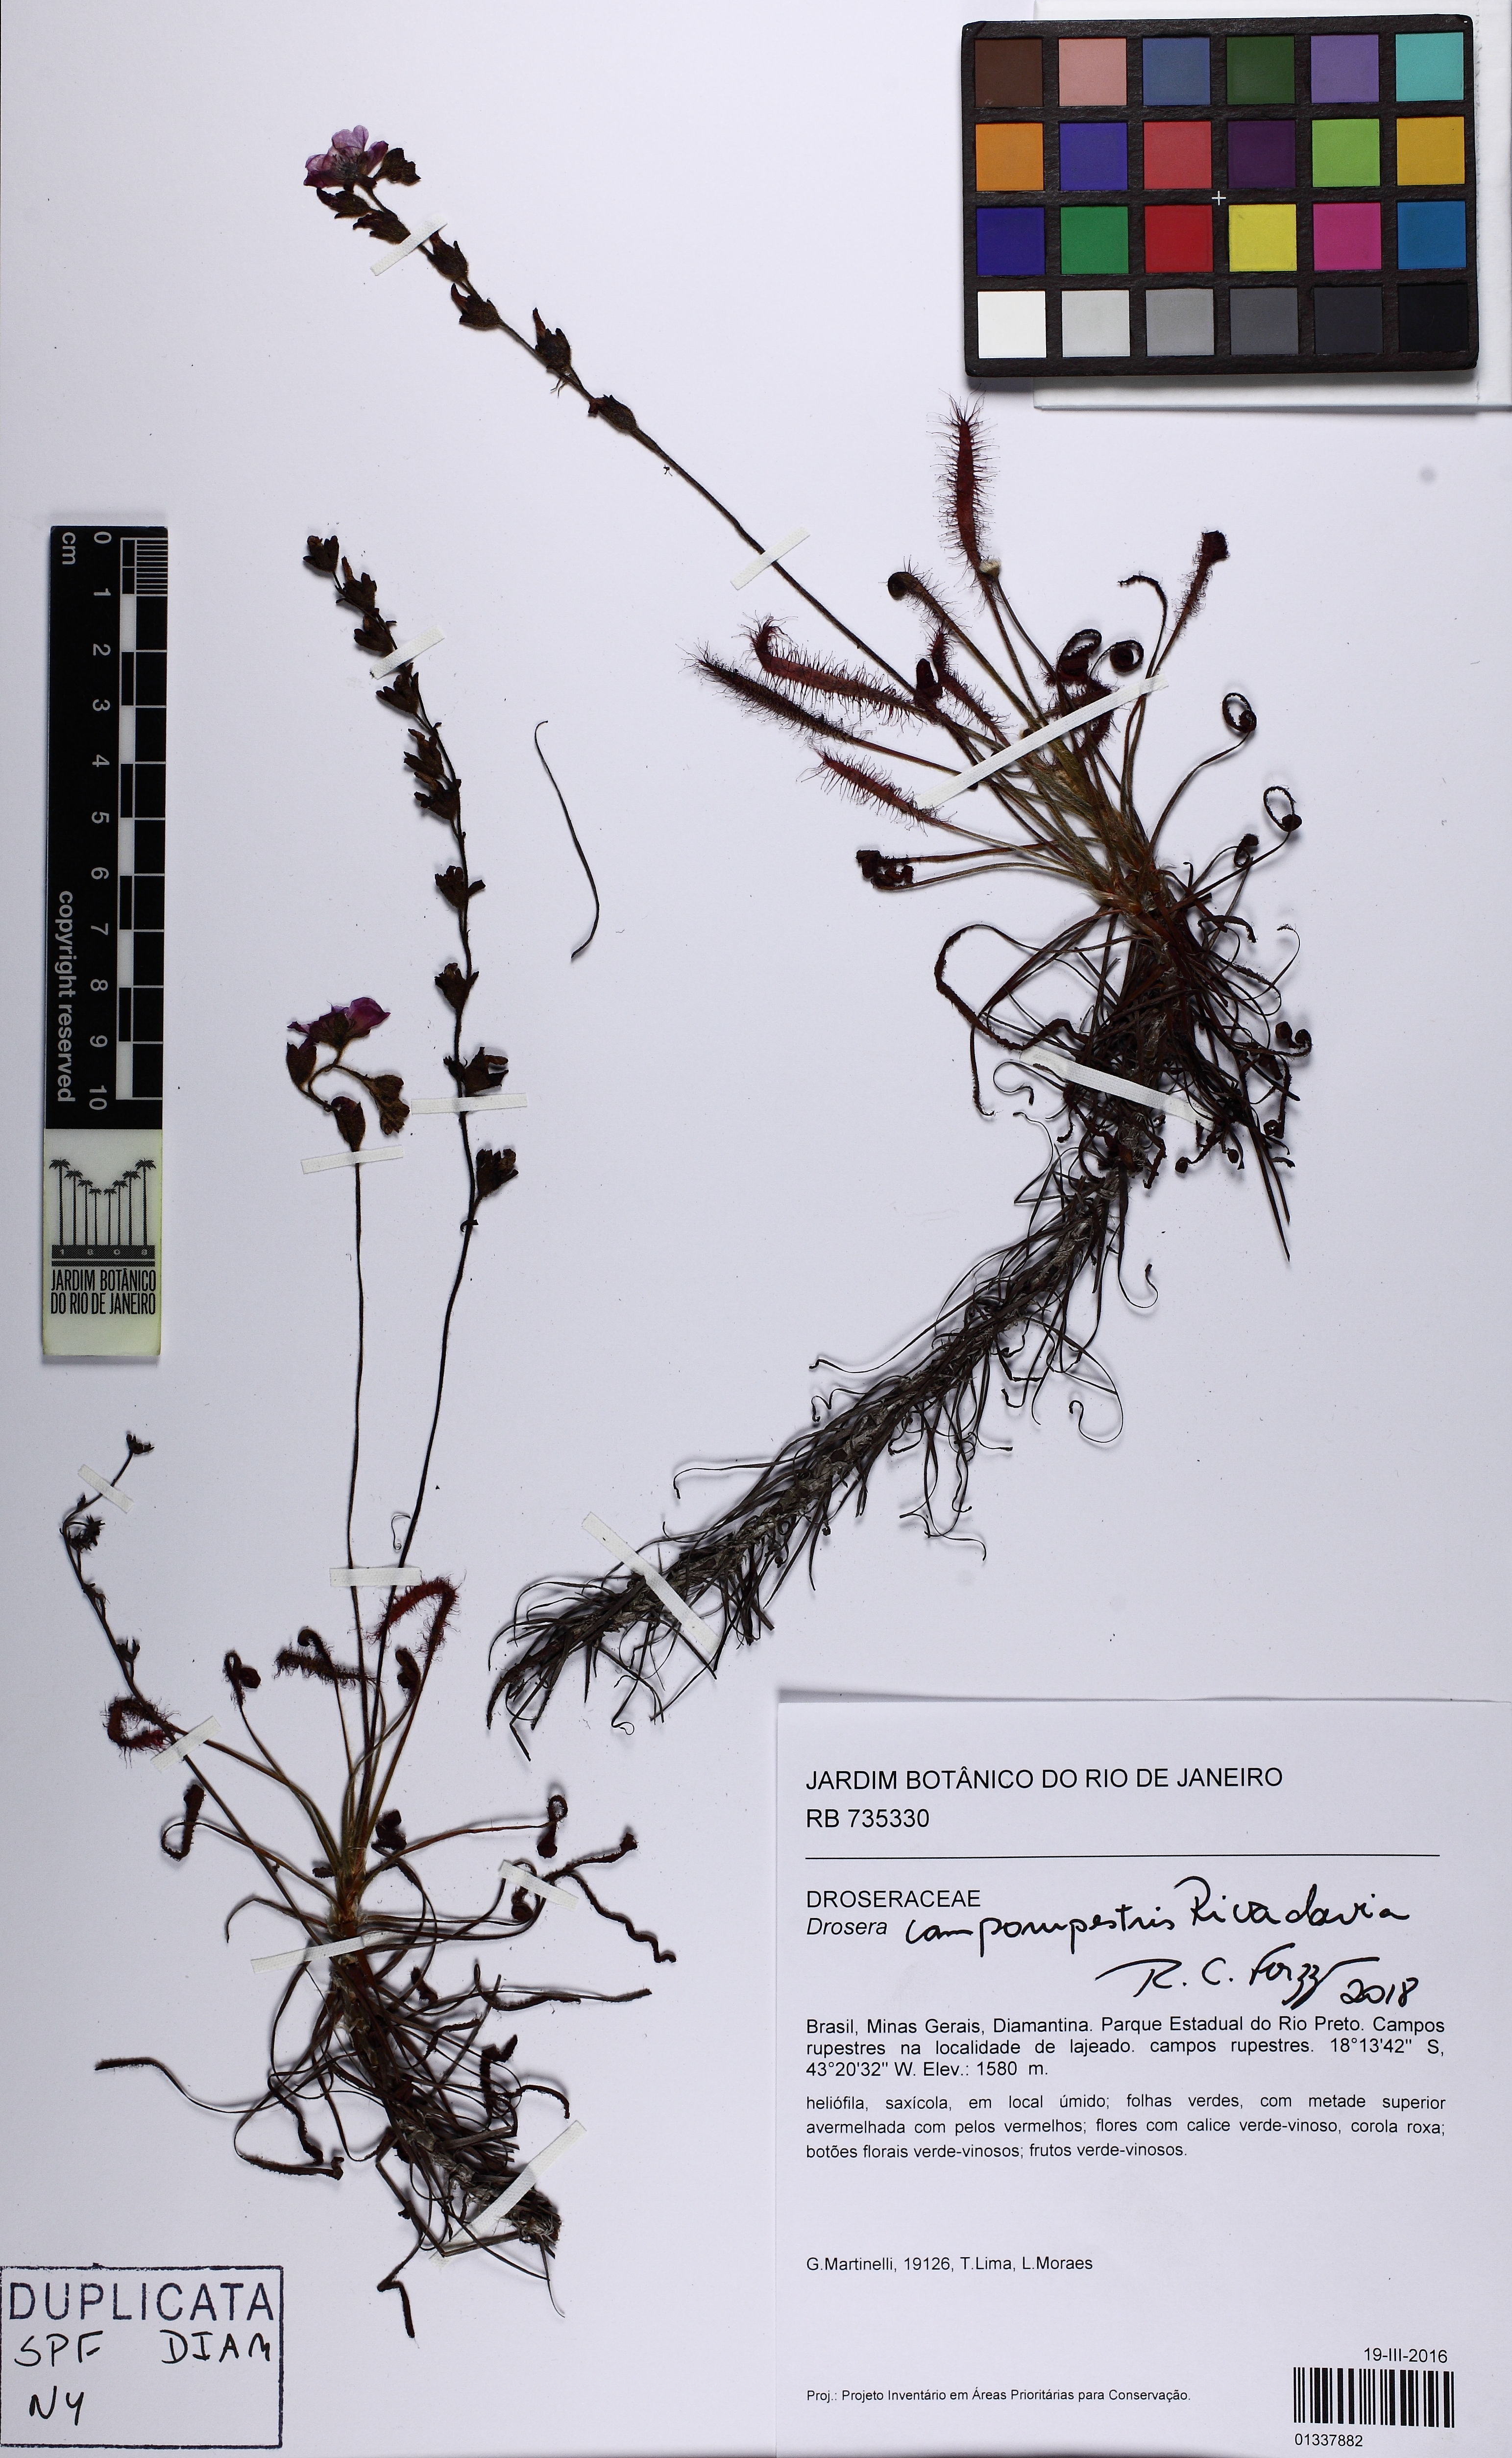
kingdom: Plantae
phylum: Tracheophyta
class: Magnoliopsida
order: Caryophyllales
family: Droseraceae
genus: Drosera
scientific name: Drosera camporupestris
